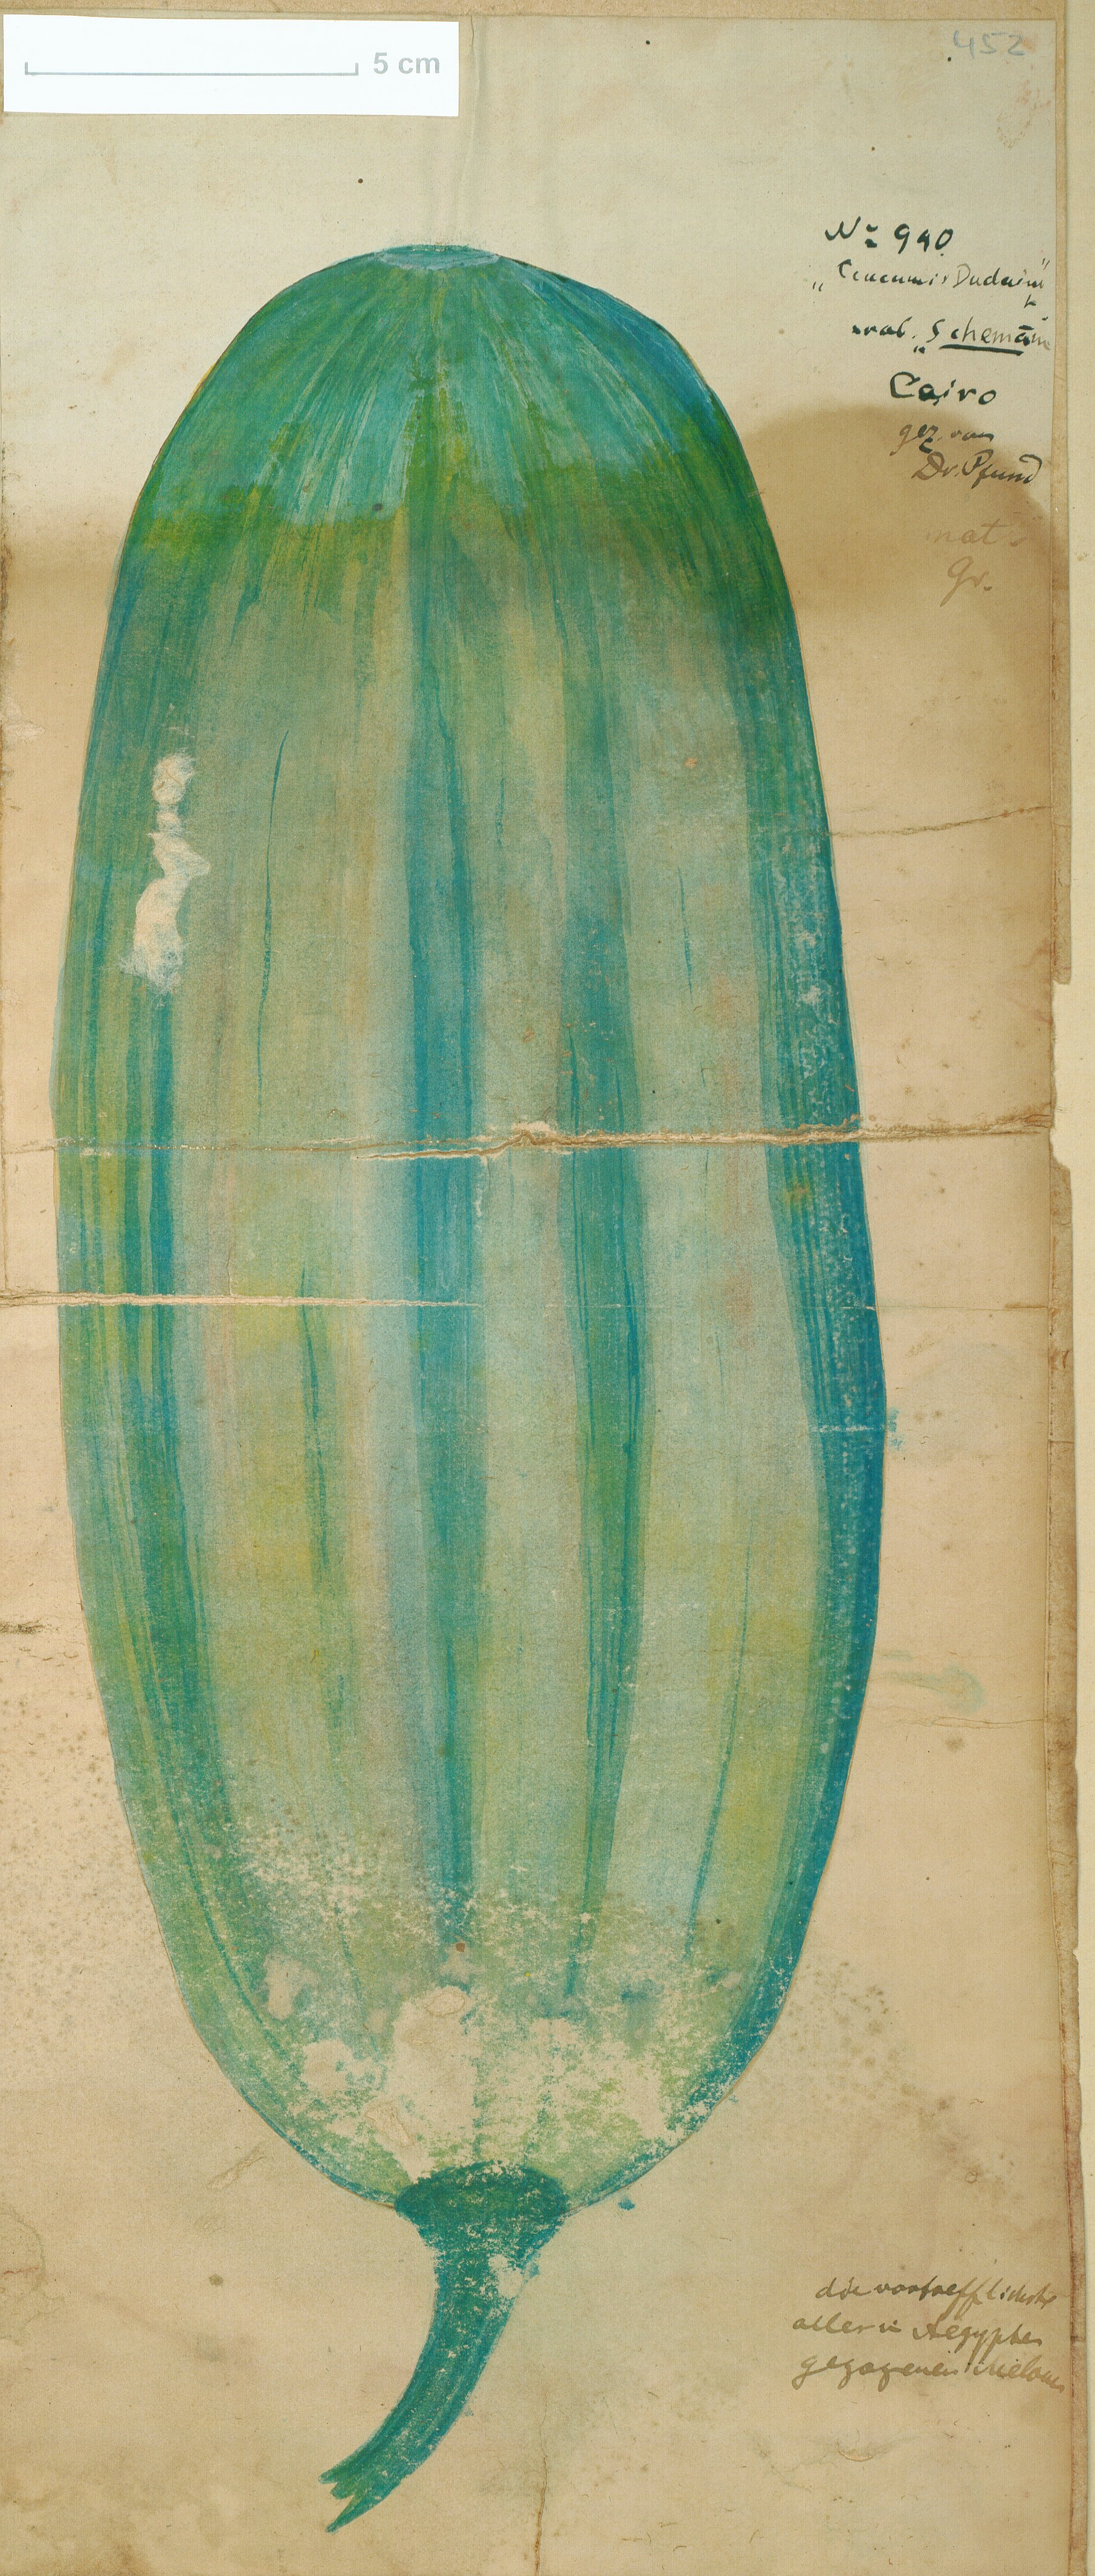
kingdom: Plantae
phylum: Tracheophyta
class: Magnoliopsida
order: Cucurbitales
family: Cucurbitaceae
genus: Cucumis
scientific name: Cucumis melo
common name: Melon
